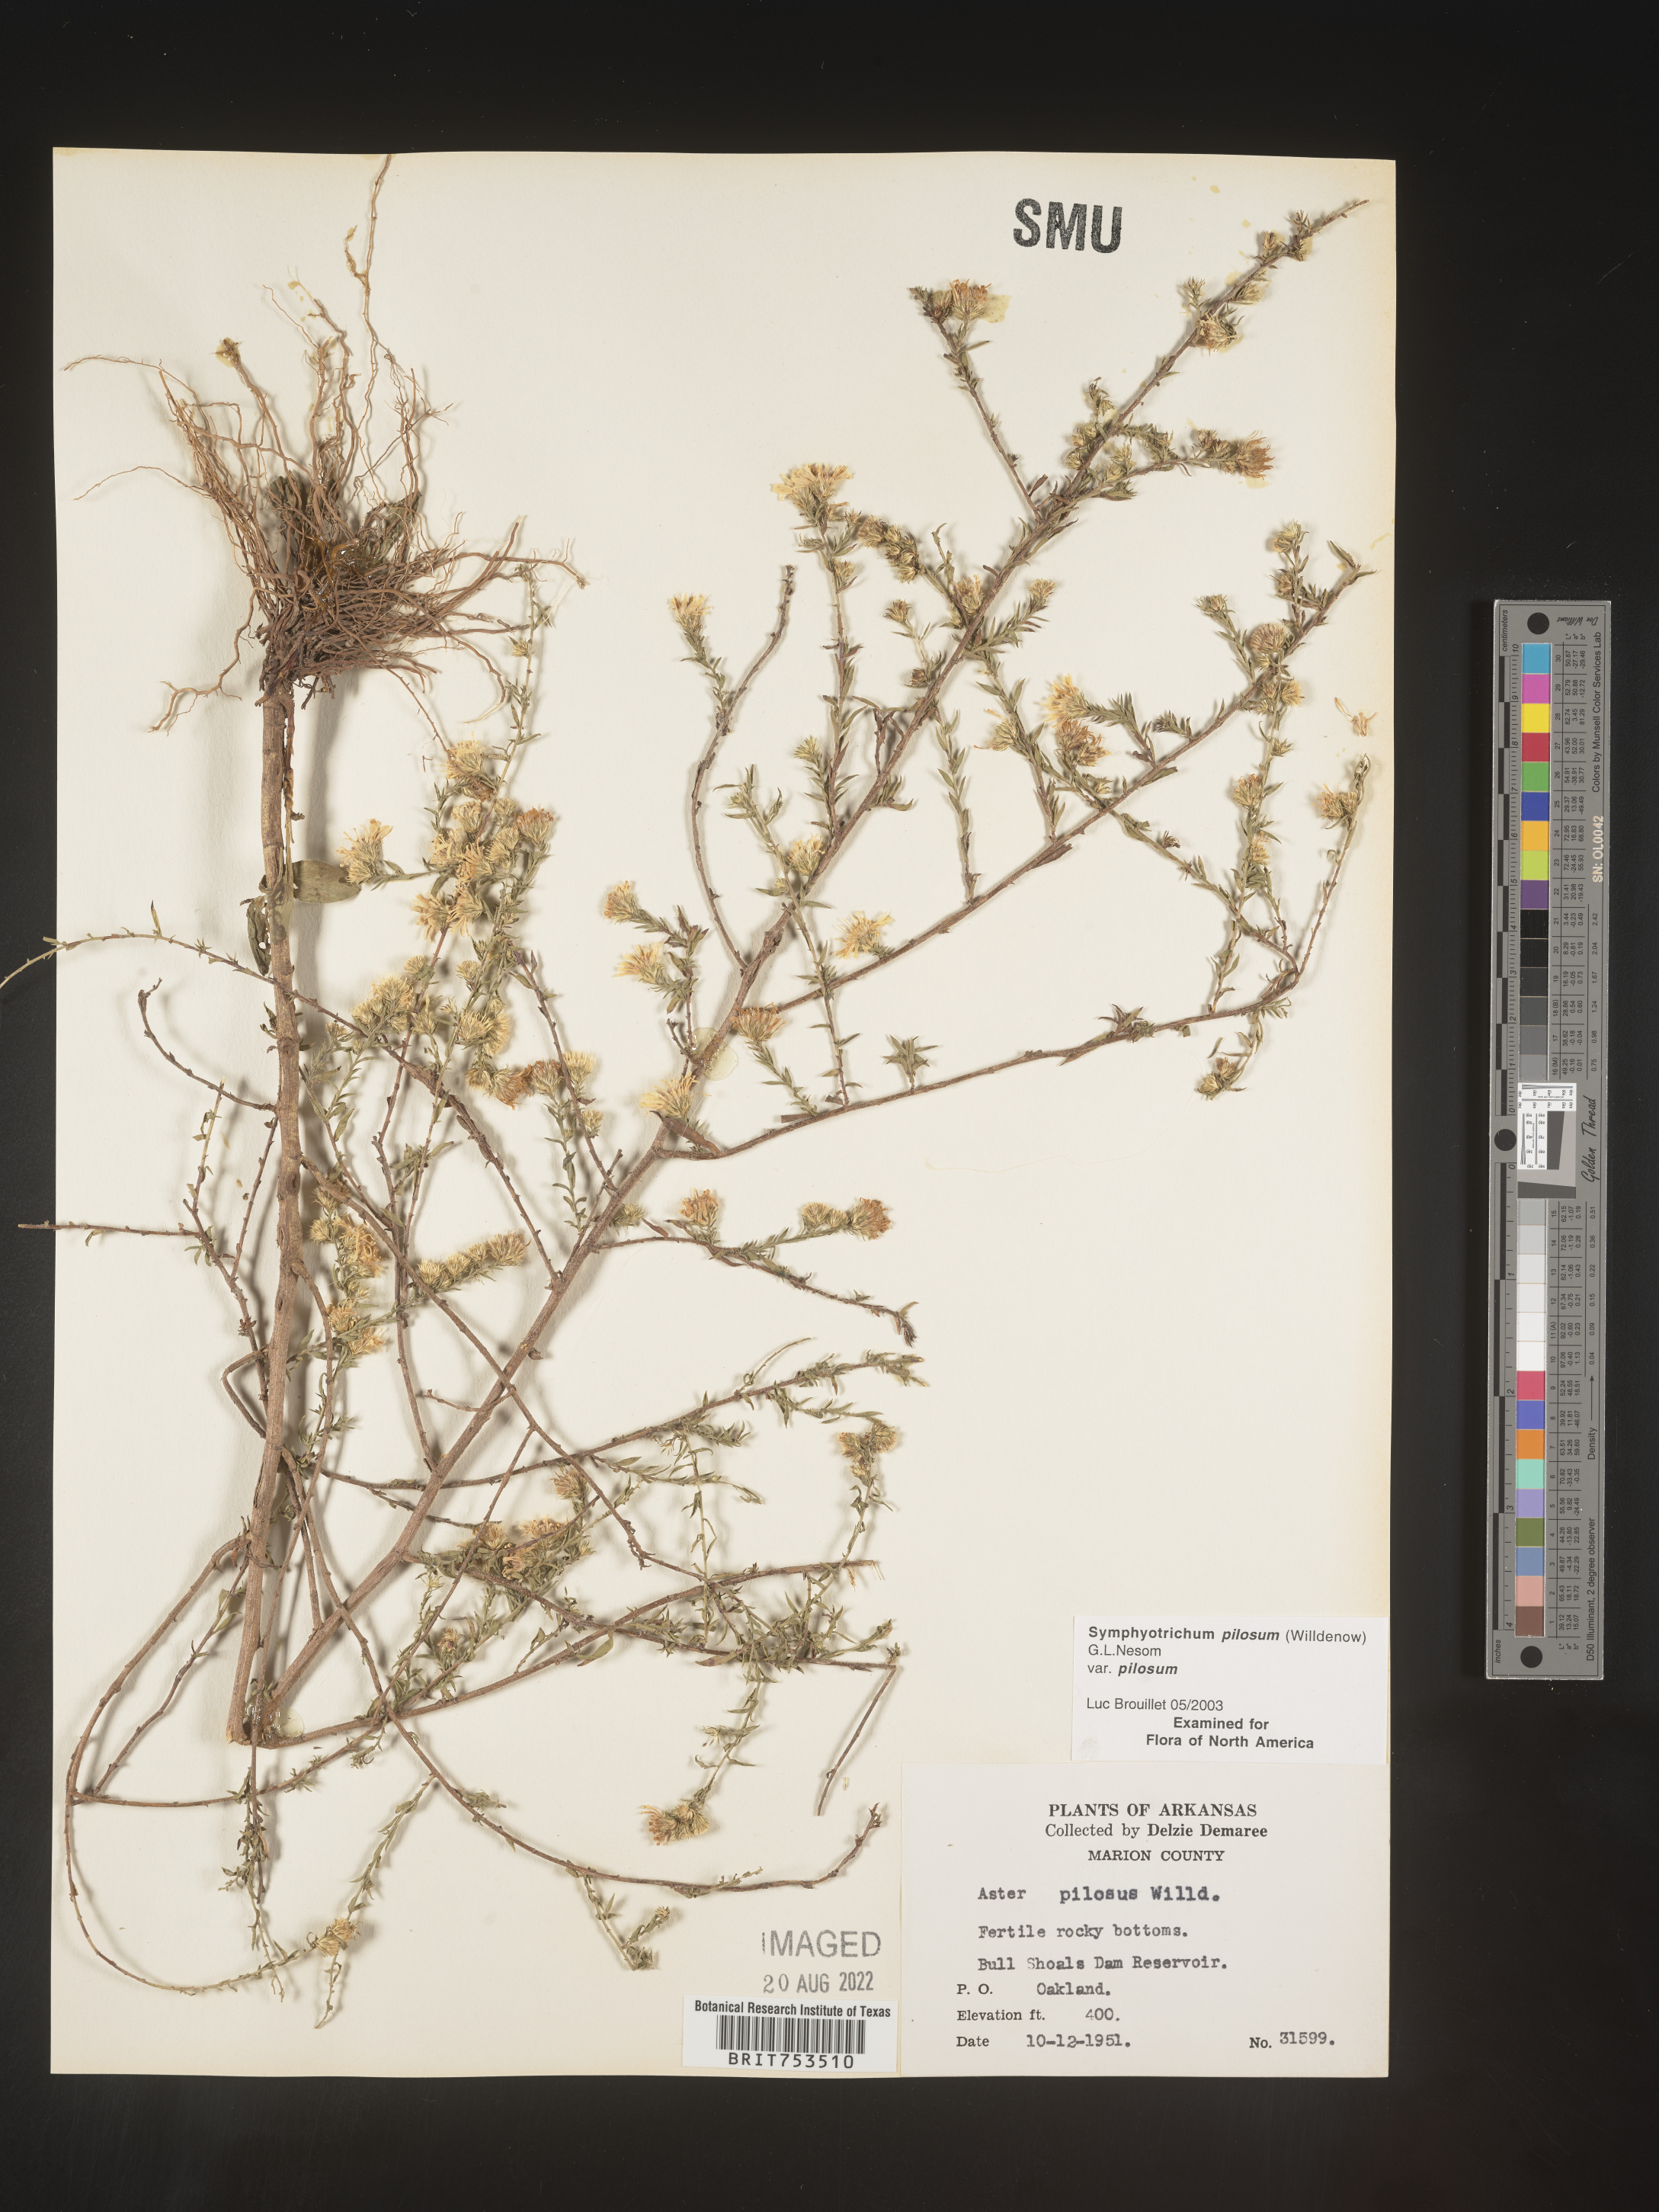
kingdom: Plantae
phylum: Tracheophyta
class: Magnoliopsida
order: Asterales
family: Asteraceae
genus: Symphyotrichum
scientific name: Symphyotrichum pilosum
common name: Awl aster
